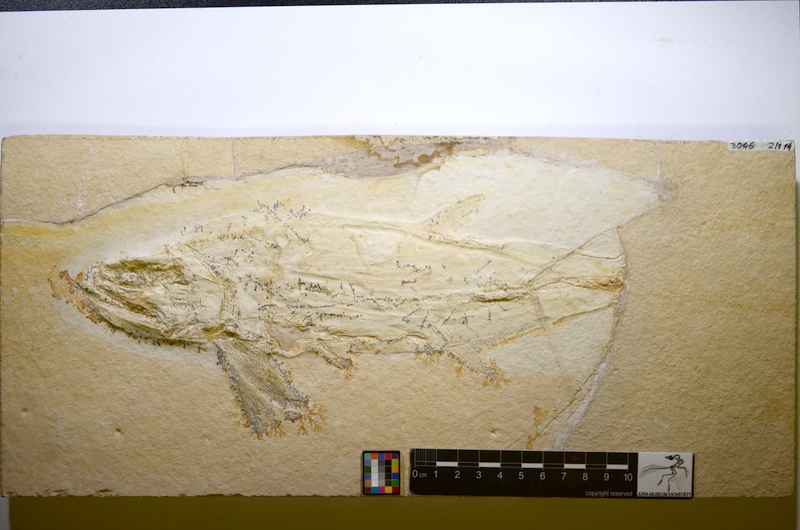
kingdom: Animalia
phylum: Chordata
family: Pachycormidae
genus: Sauropsis
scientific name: Sauropsis longimanus
